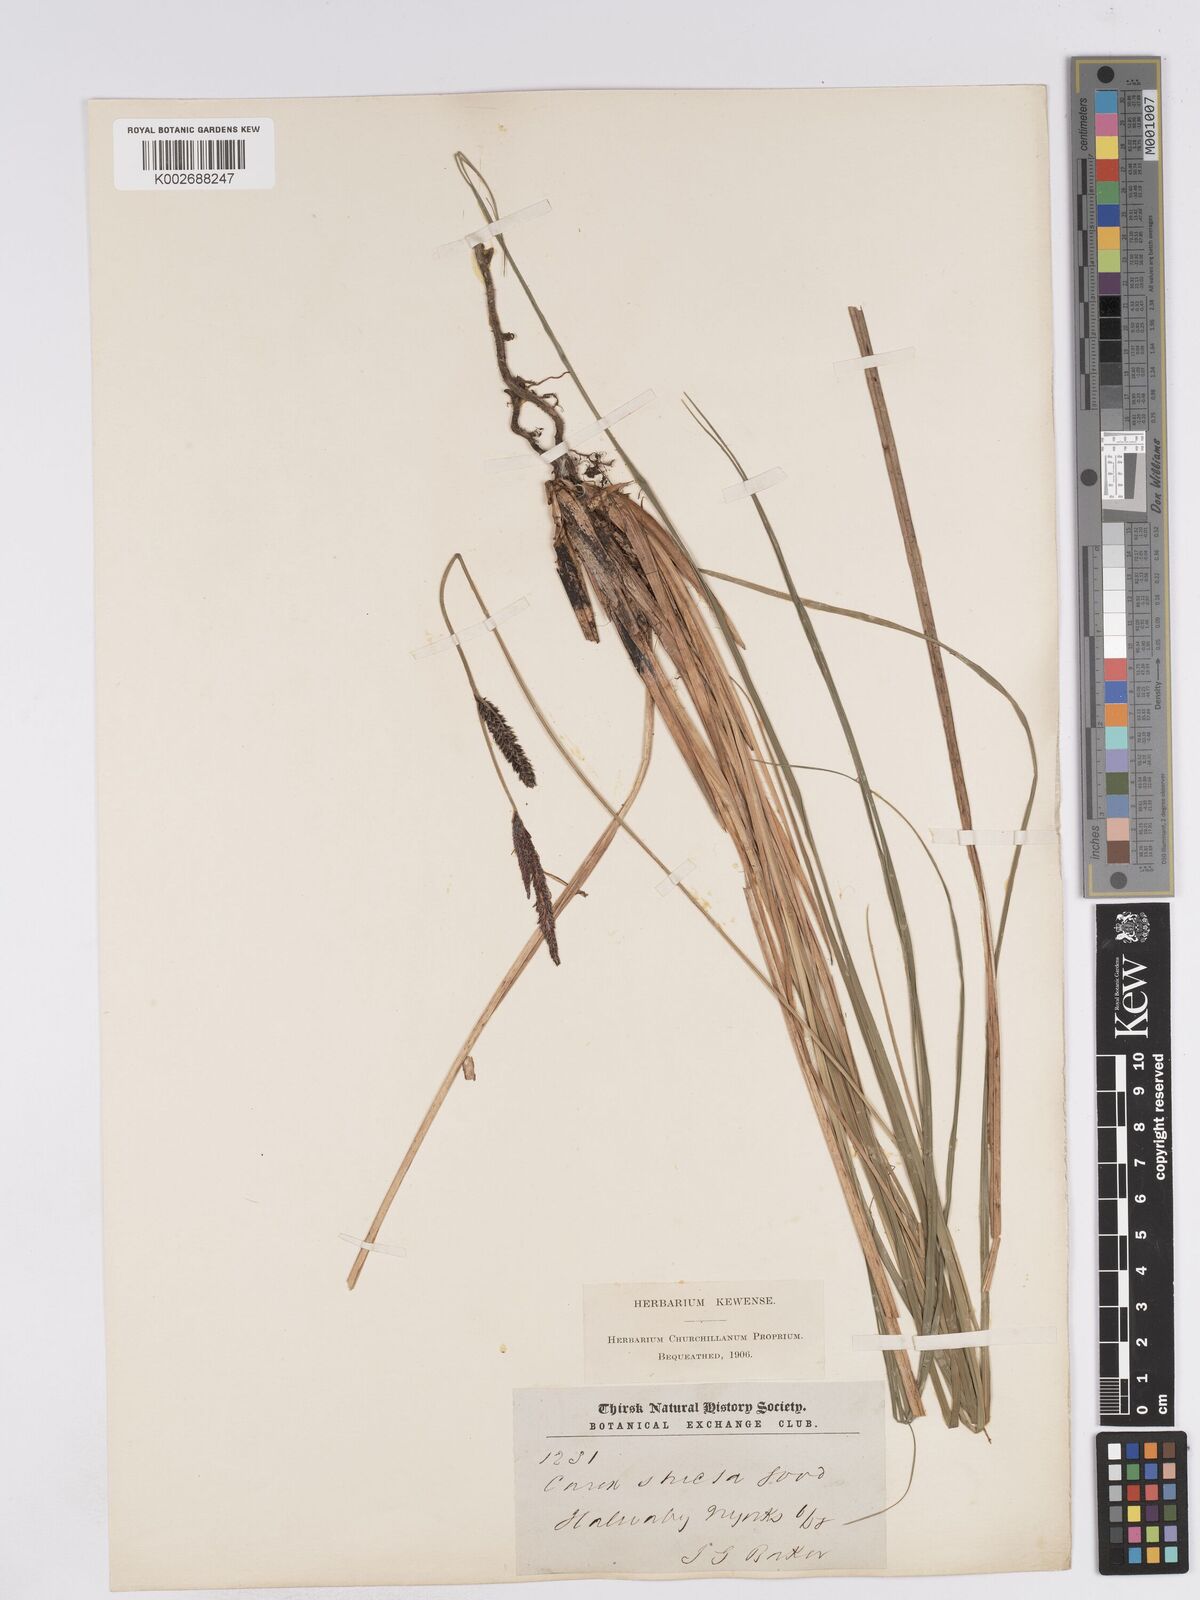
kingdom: Plantae
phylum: Tracheophyta
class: Liliopsida
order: Poales
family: Cyperaceae
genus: Carex
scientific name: Carex elata
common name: Tufted sedge
